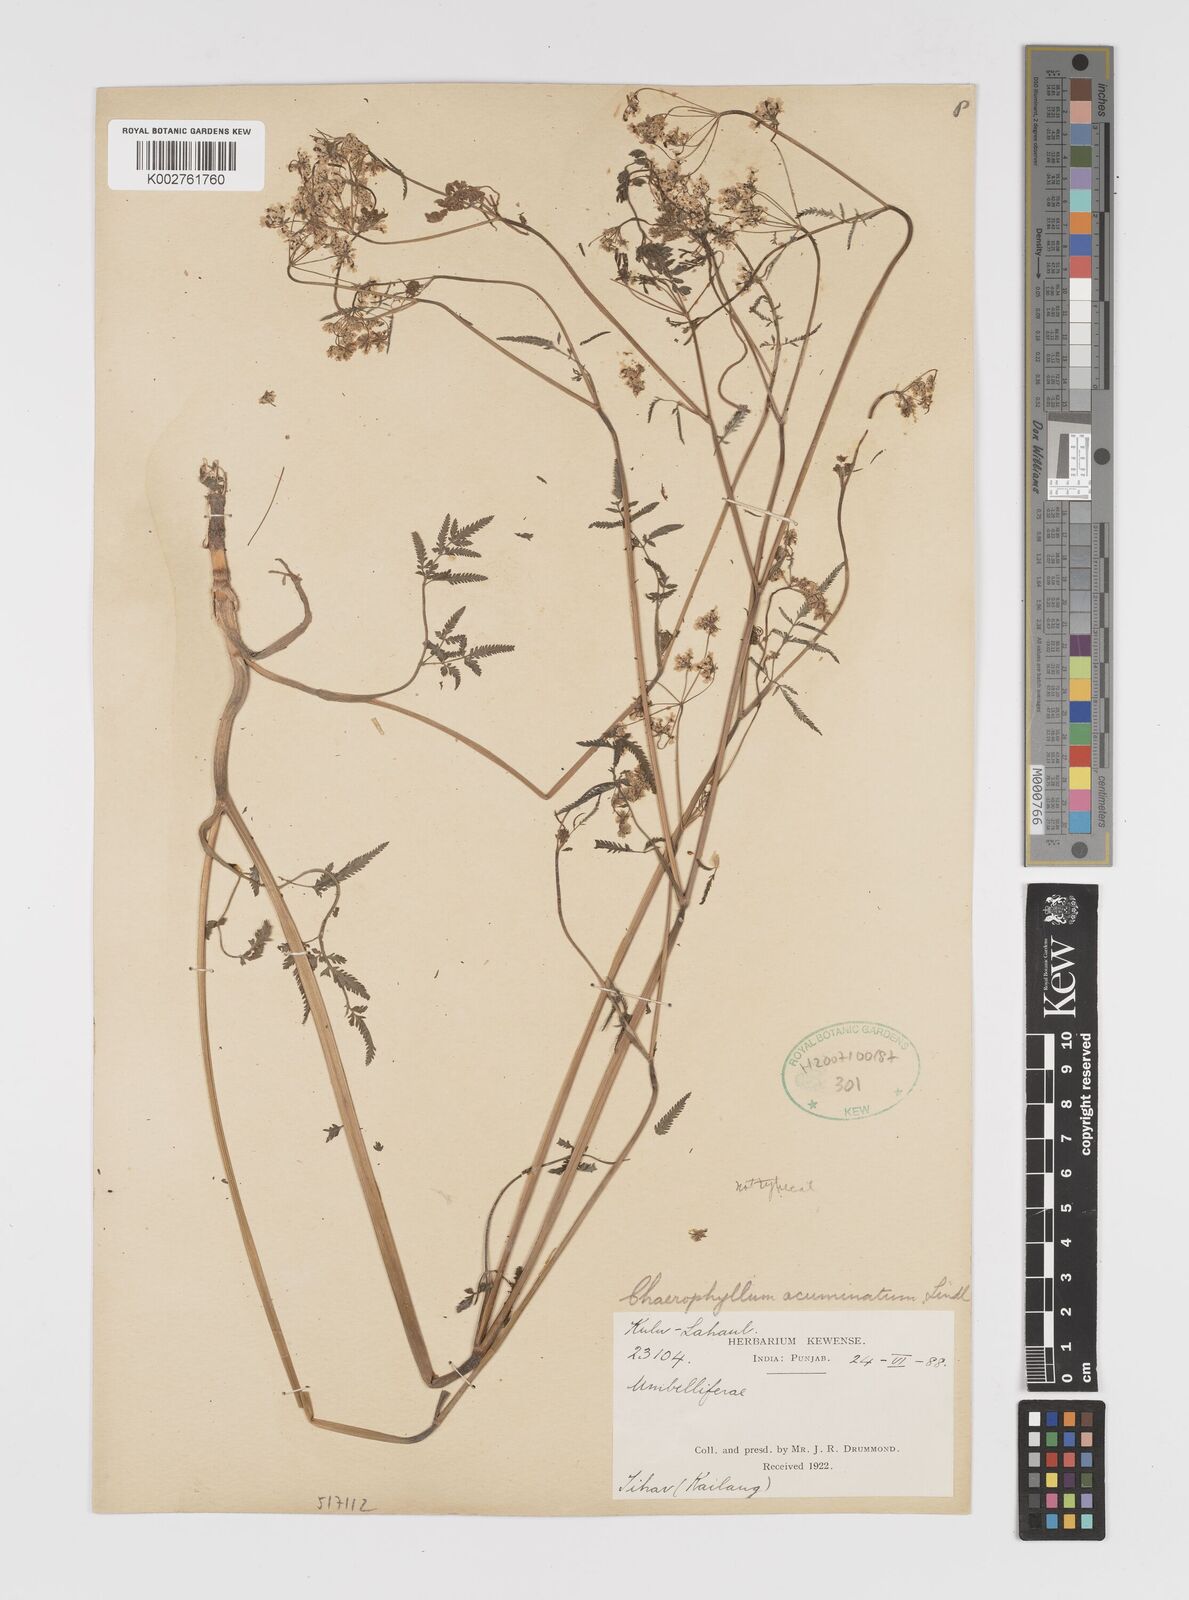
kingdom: Plantae
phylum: Tracheophyta
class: Magnoliopsida
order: Apiales
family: Apiaceae
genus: Chaerophyllum
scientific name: Chaerophyllum reflexum
